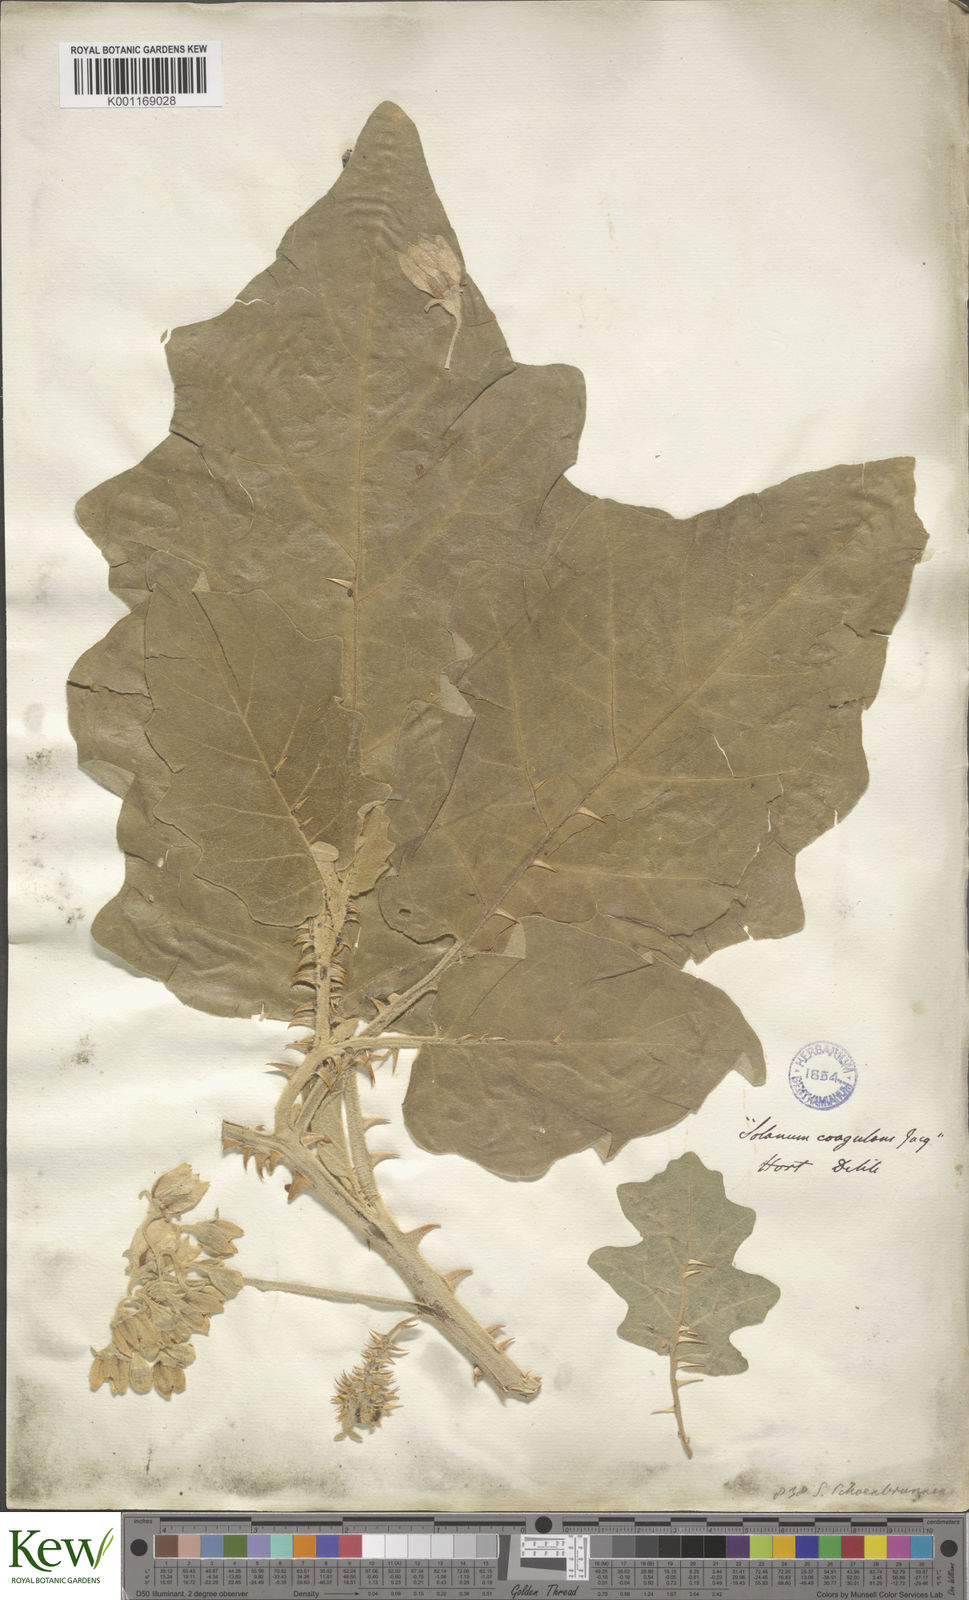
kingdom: Plantae
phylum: Tracheophyta
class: Magnoliopsida
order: Solanales
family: Solanaceae
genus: Solanum
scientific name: Solanum incanum
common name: Bitter apple
